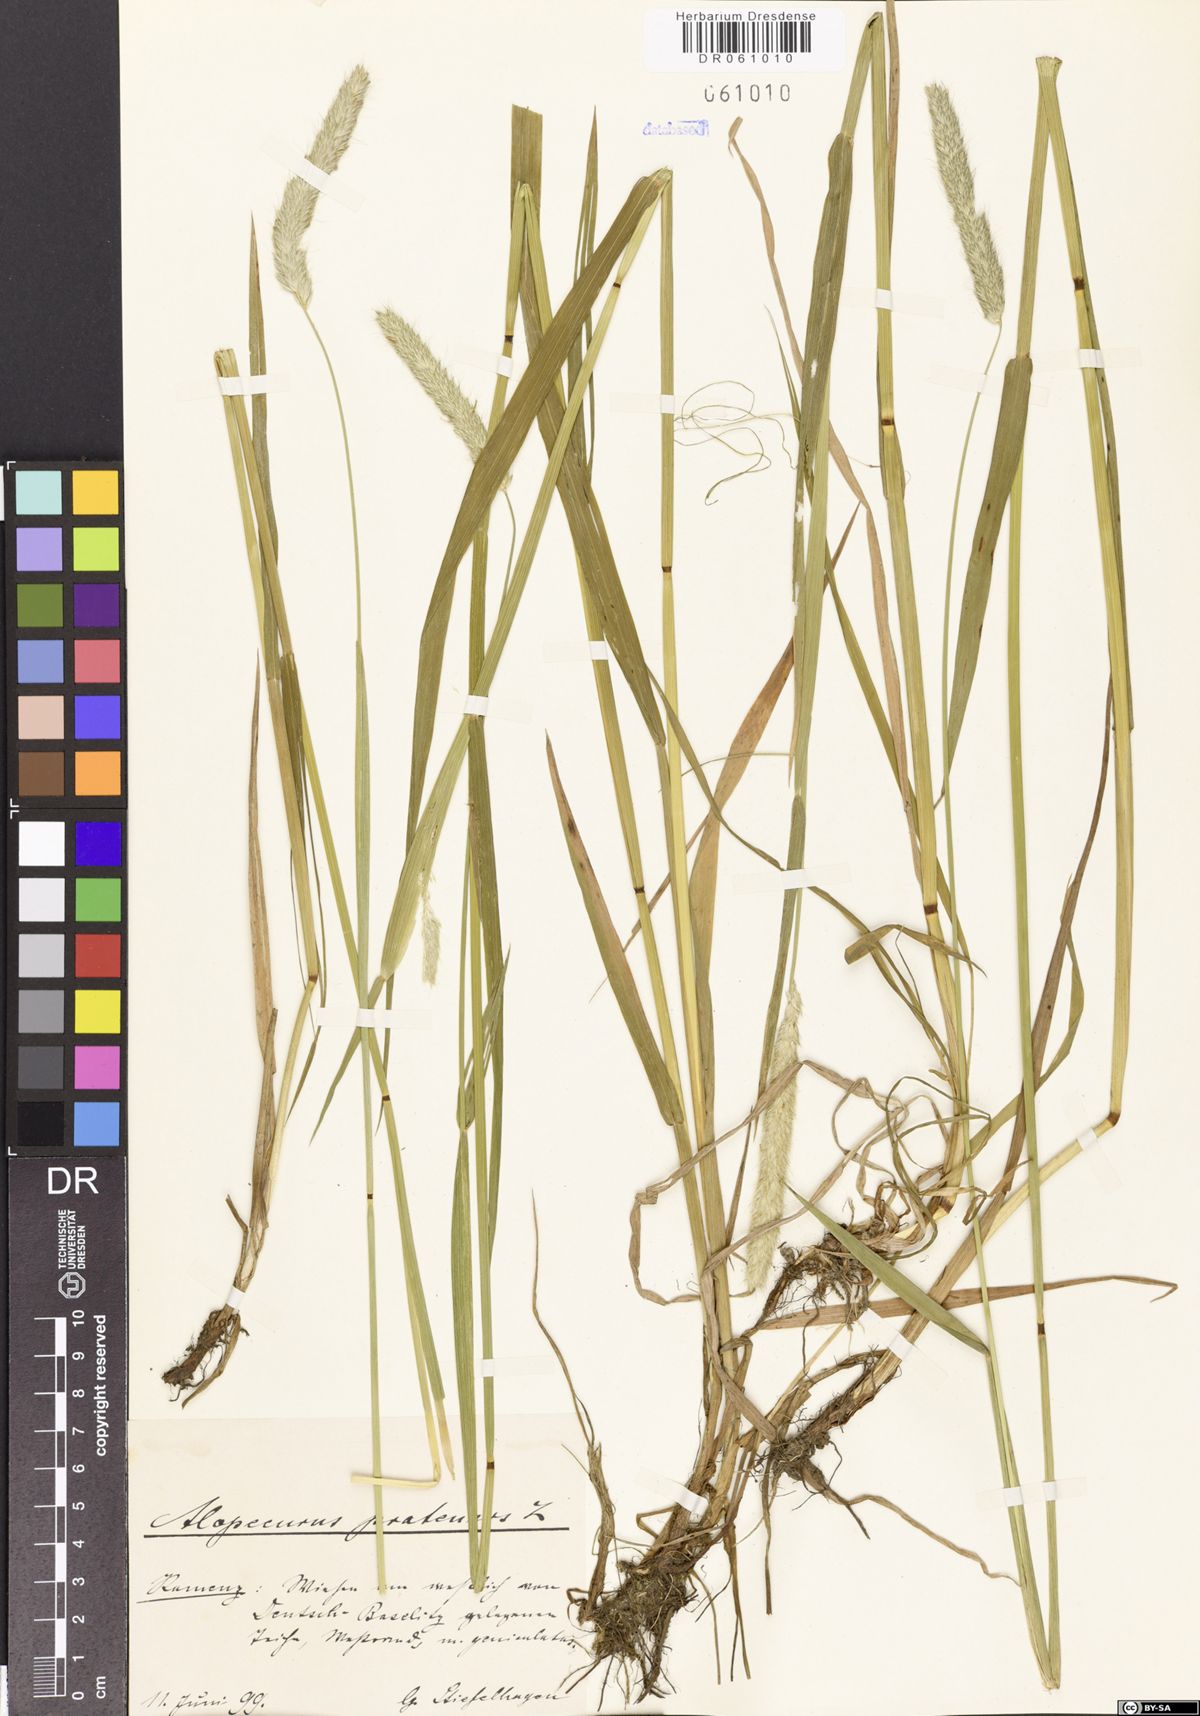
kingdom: Plantae
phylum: Tracheophyta
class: Liliopsida
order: Poales
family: Poaceae
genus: Alopecurus
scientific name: Alopecurus pratensis
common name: Meadow foxtail
